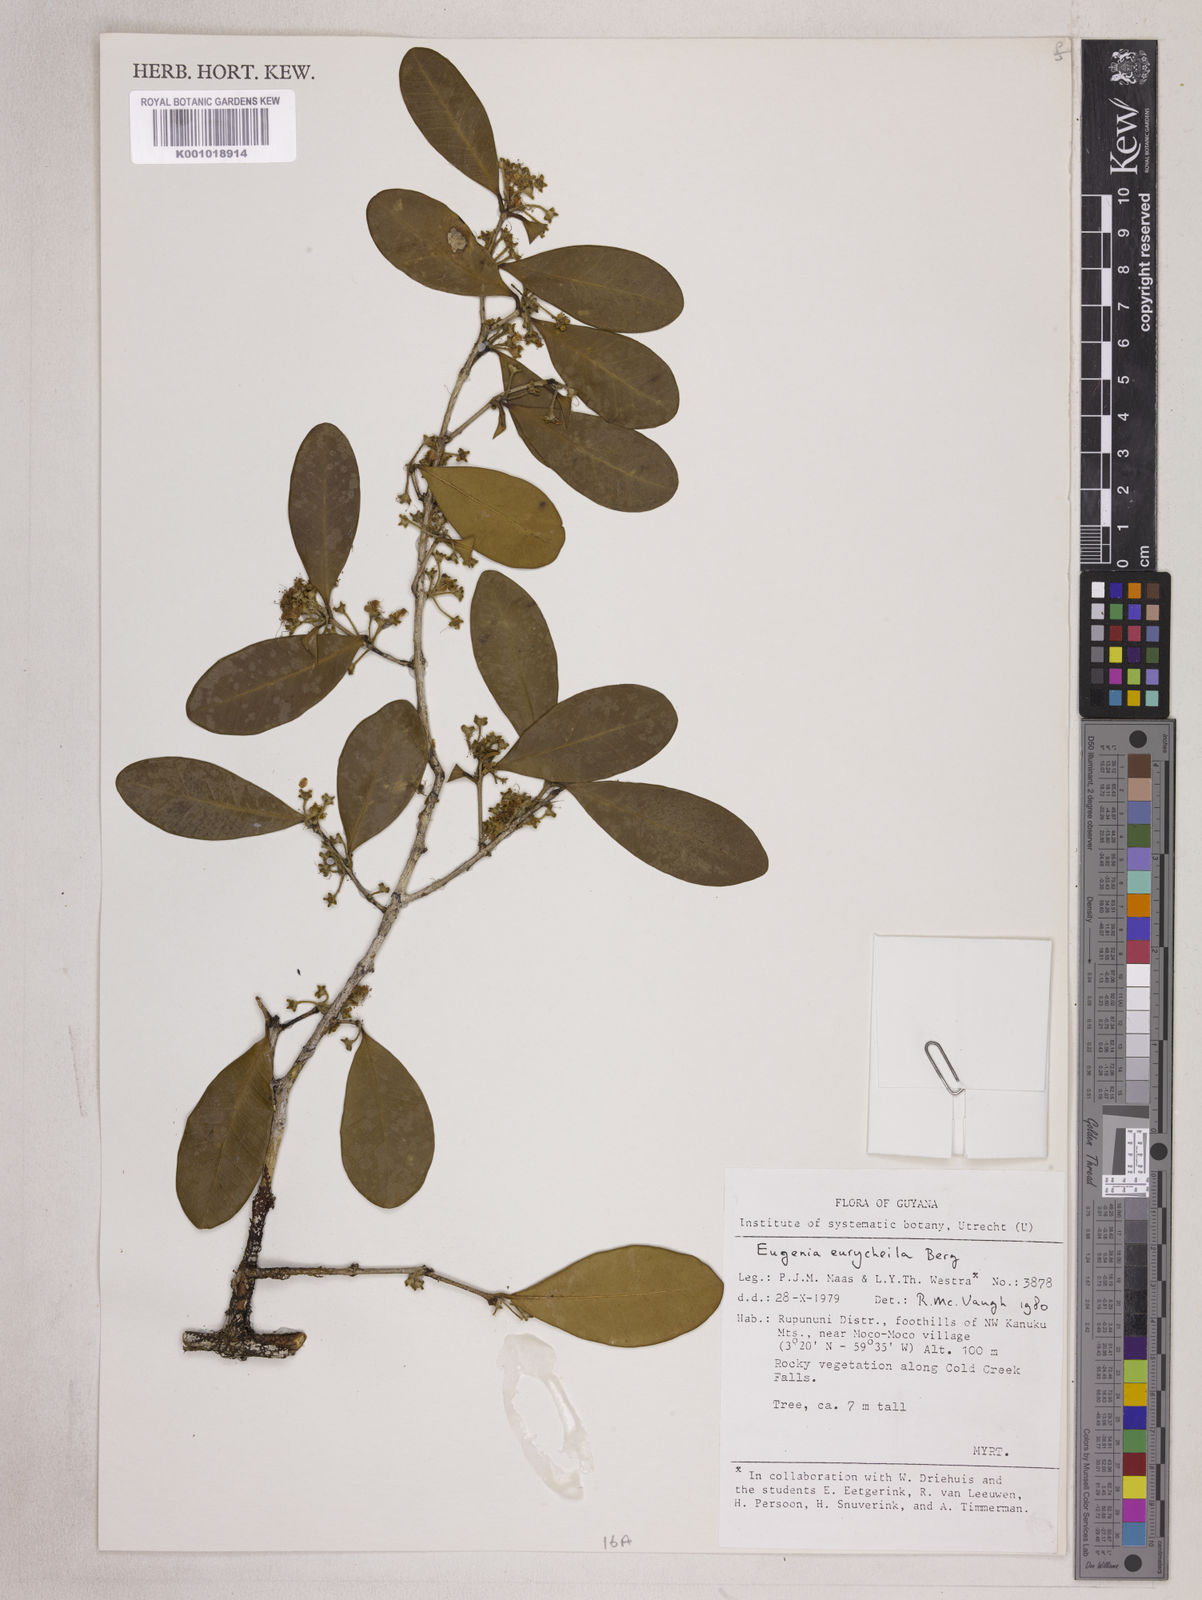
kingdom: Plantae
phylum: Tracheophyta
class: Magnoliopsida
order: Myrtales
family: Myrtaceae
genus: Eugenia
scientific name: Eugenia eurycheila
